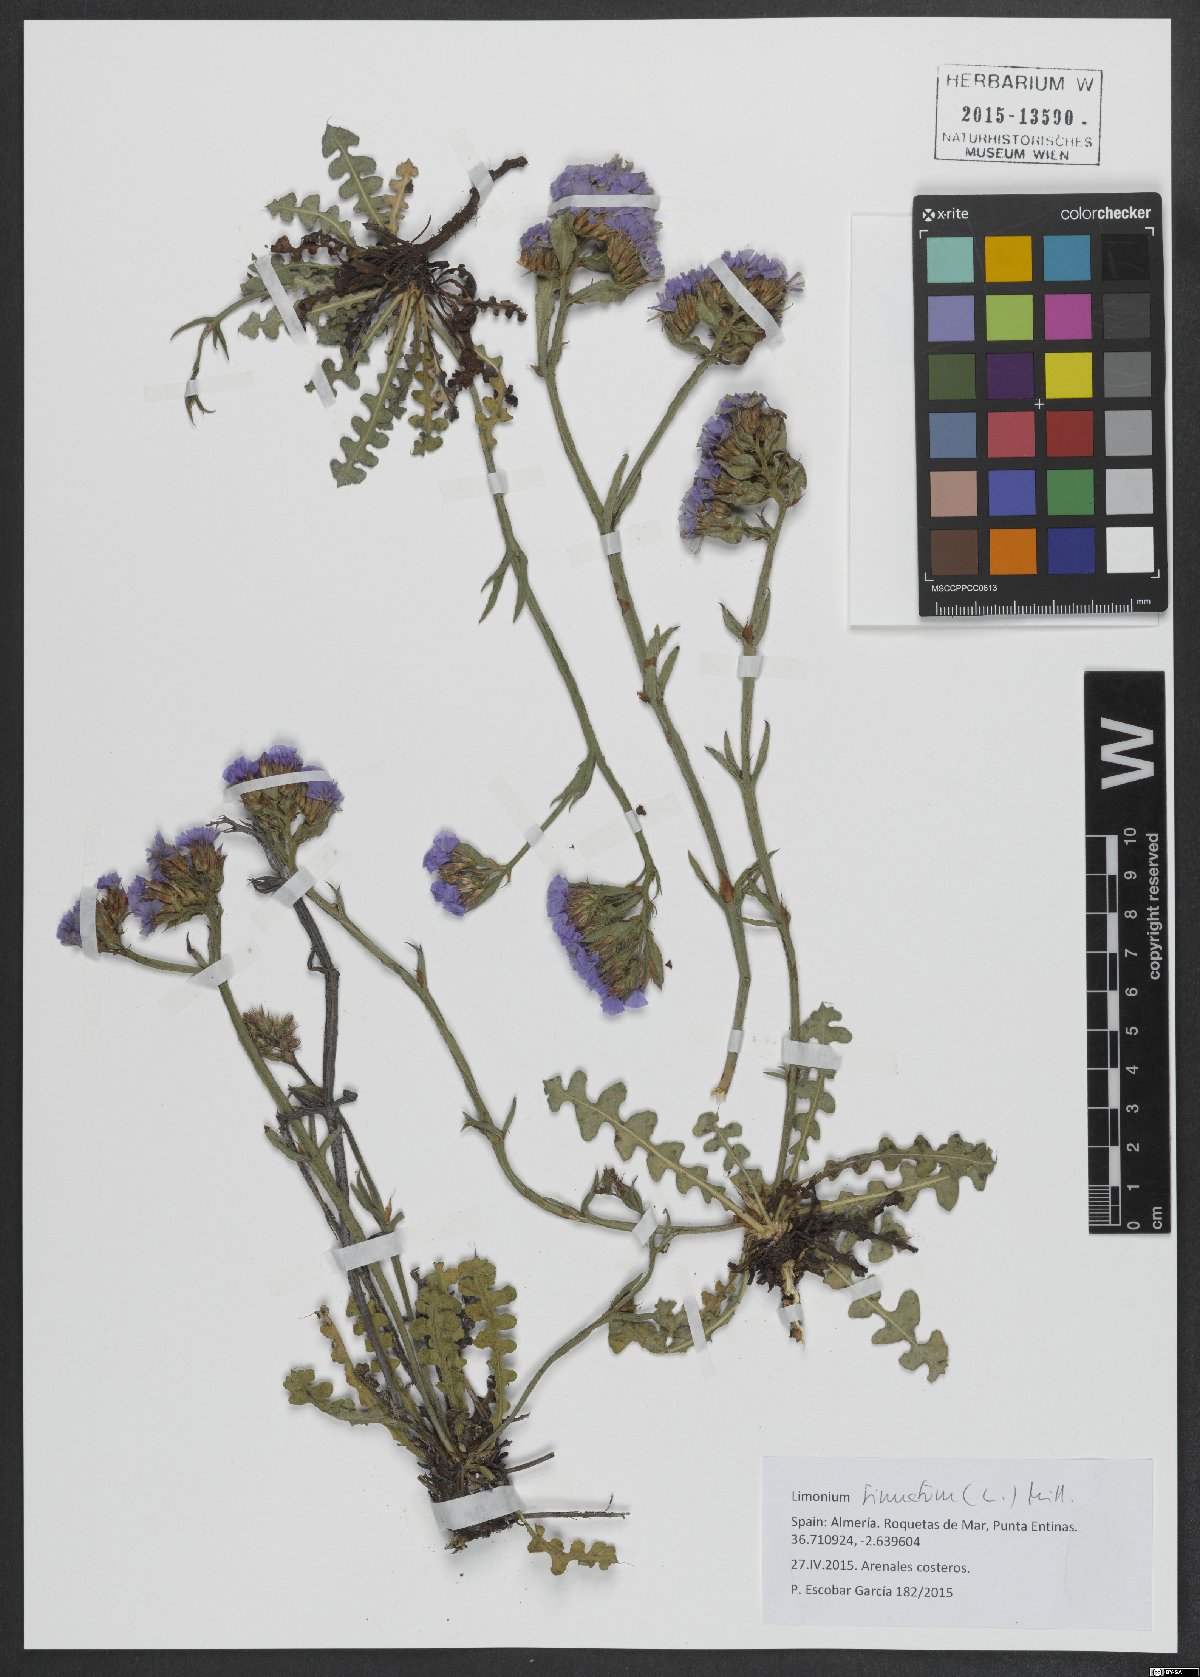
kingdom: Plantae
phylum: Tracheophyta
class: Magnoliopsida
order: Caryophyllales
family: Plumbaginaceae
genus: Limonium
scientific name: Limonium sinuatum
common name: Statice
